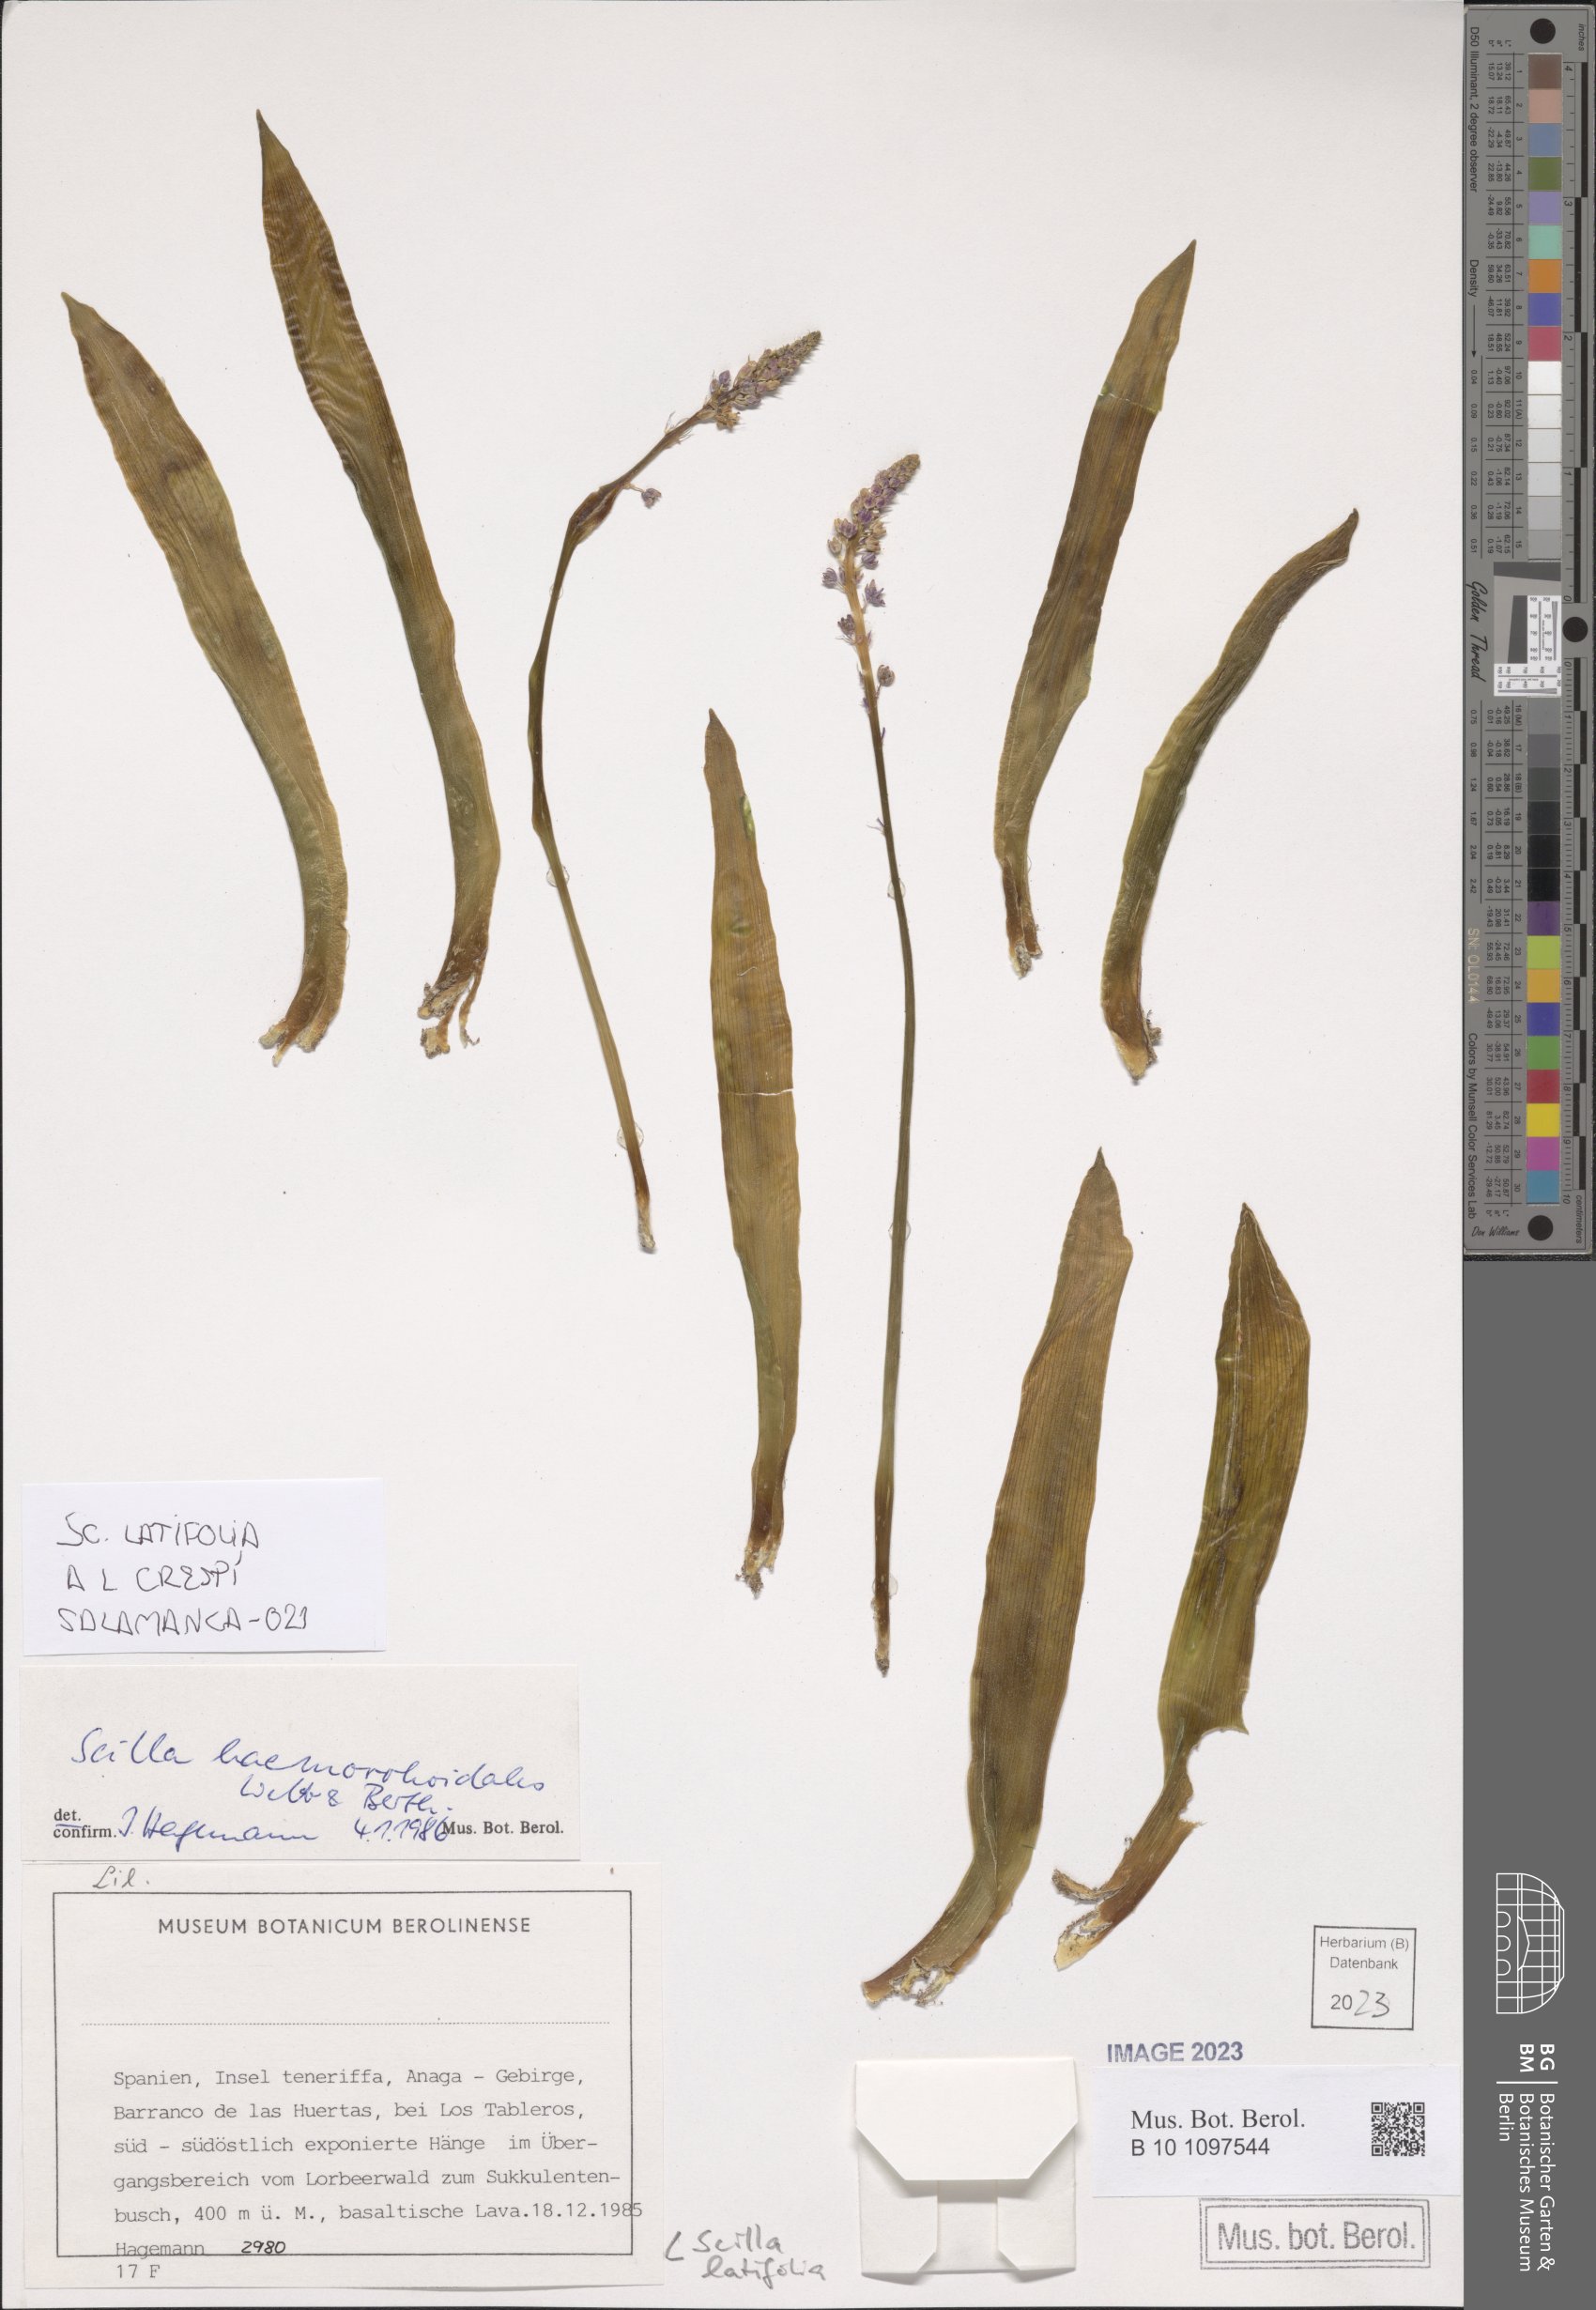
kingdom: Plantae
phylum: Tracheophyta
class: Liliopsida
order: Asparagales
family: Asparagaceae
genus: Scilla
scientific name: Scilla latifolia
